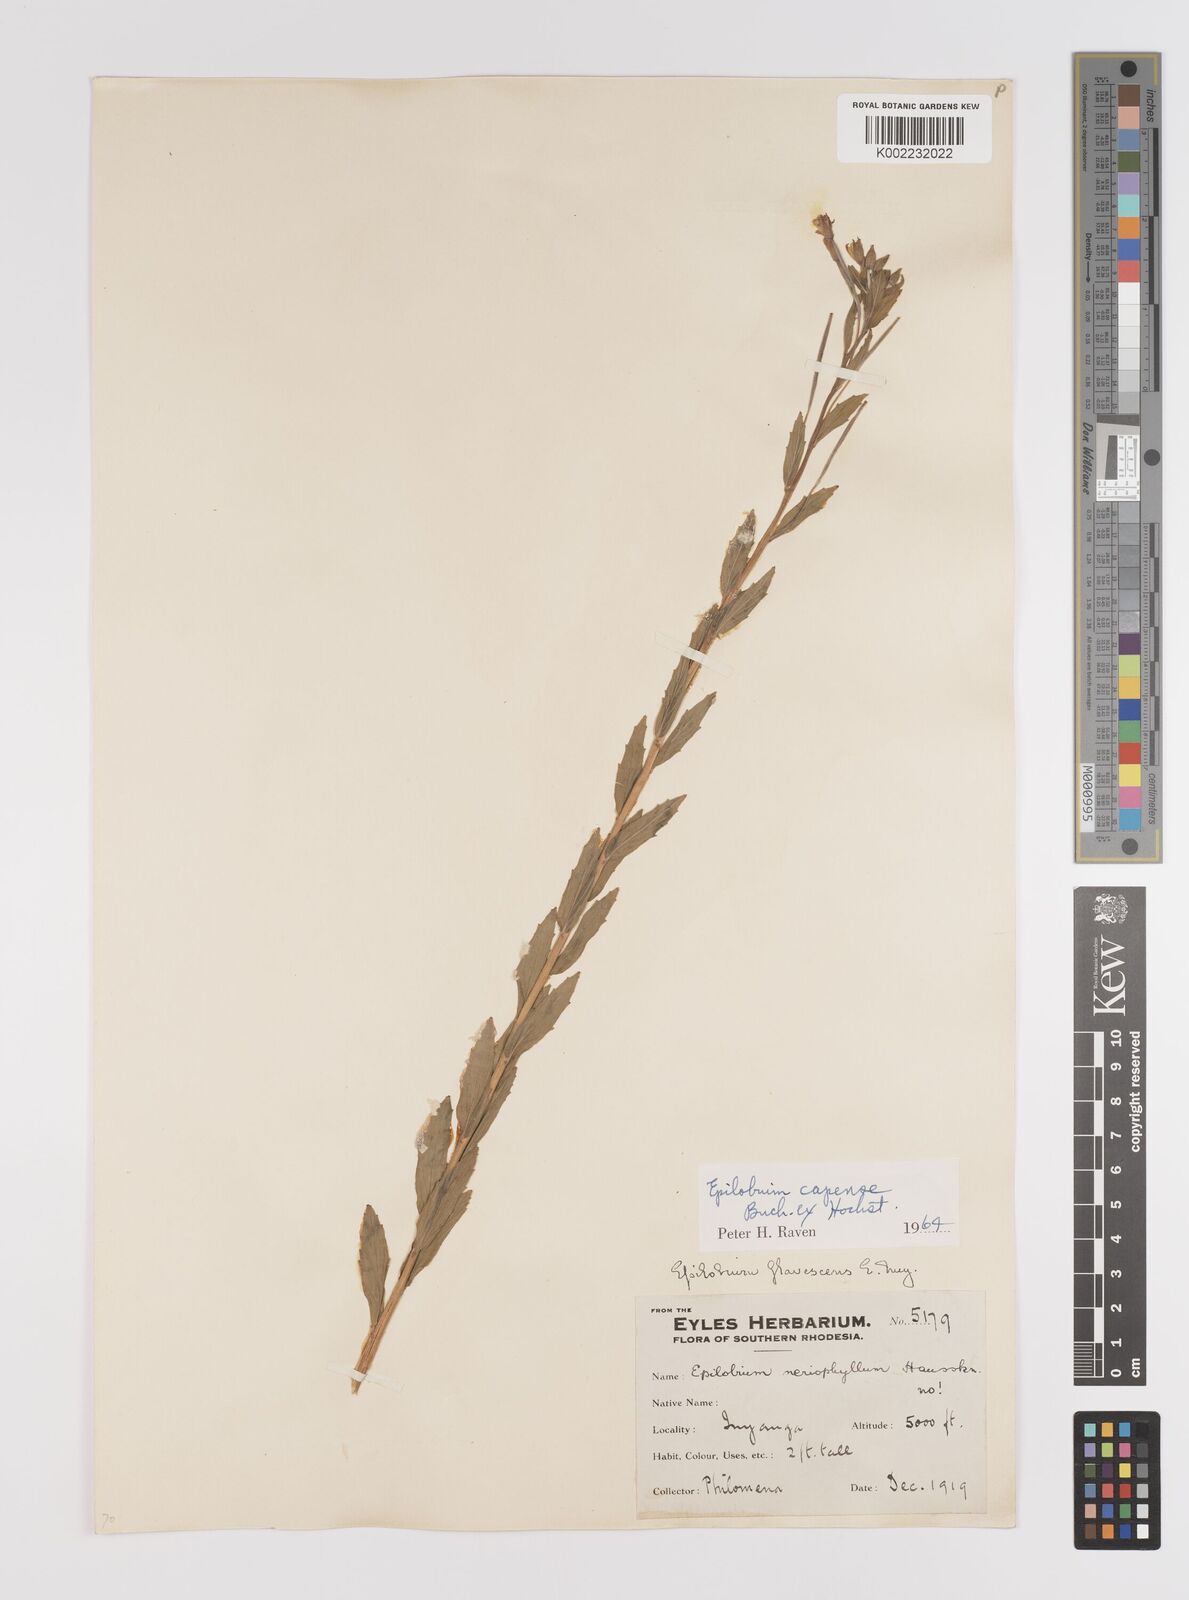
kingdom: Plantae
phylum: Tracheophyta
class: Magnoliopsida
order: Myrtales
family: Onagraceae
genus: Epilobium
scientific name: Epilobium capense
